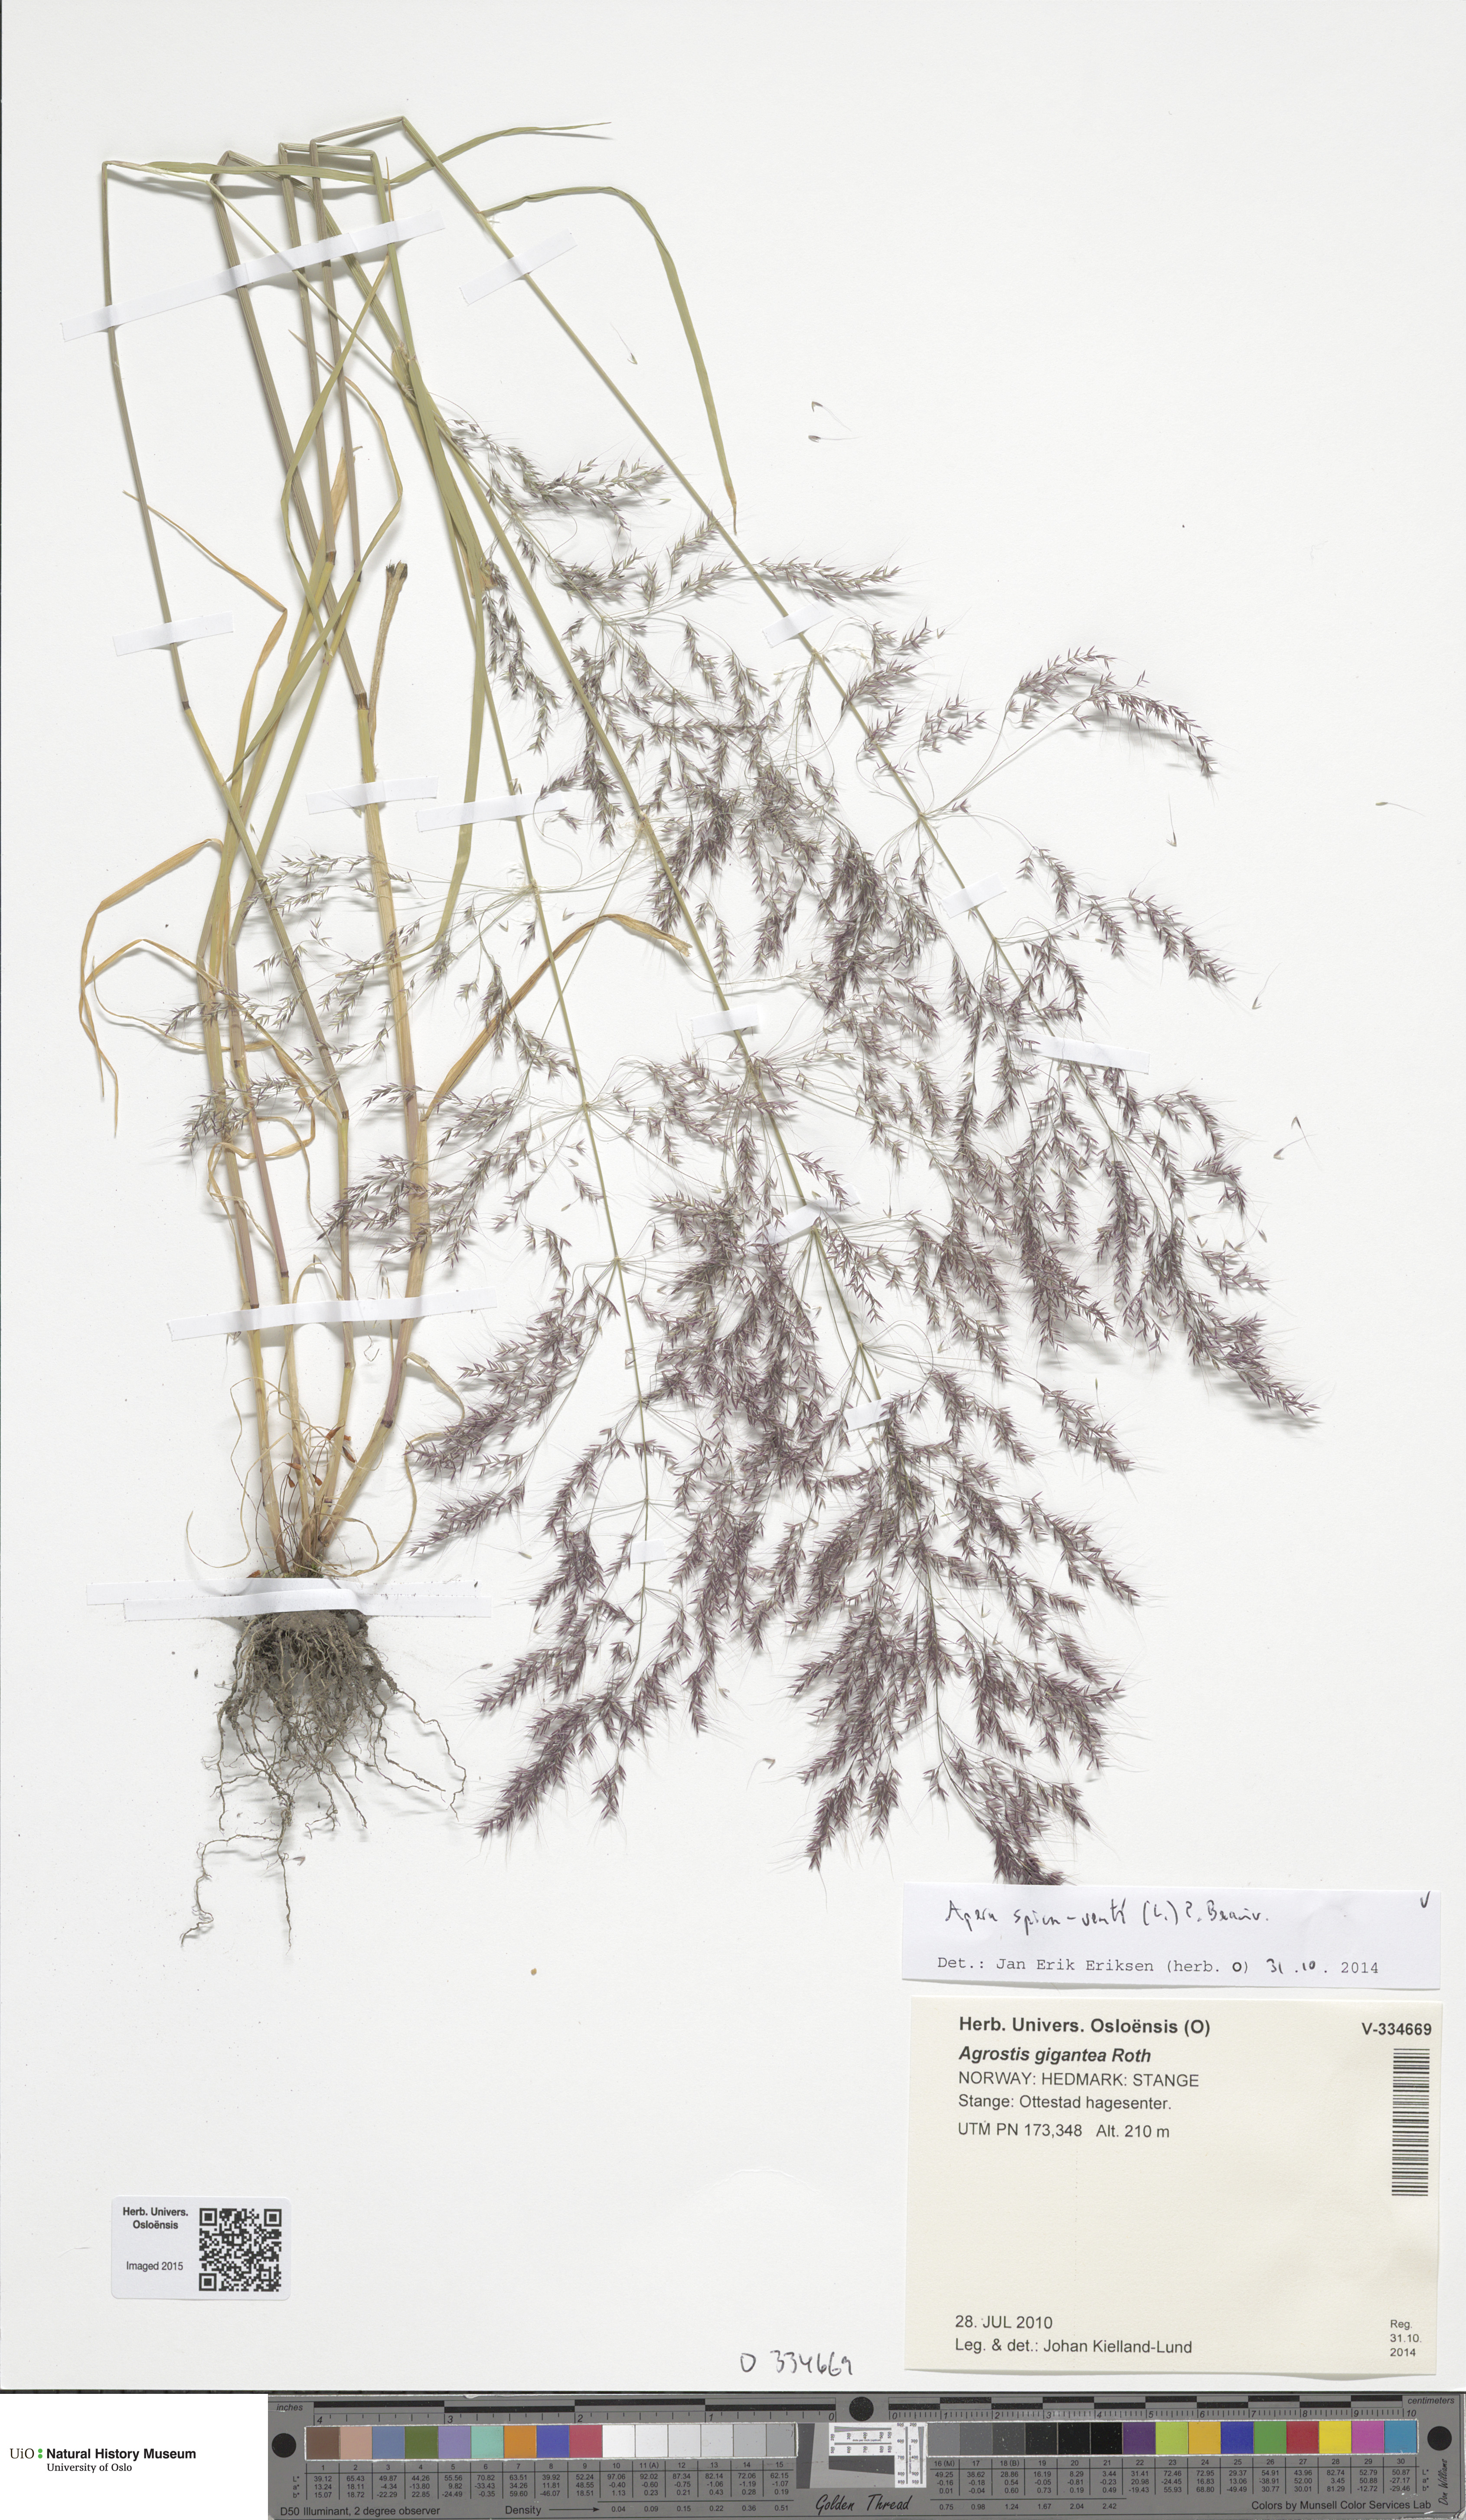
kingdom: Plantae
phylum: Tracheophyta
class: Liliopsida
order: Poales
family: Poaceae
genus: Apera
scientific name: Apera spica-venti
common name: Loose silky-bent
